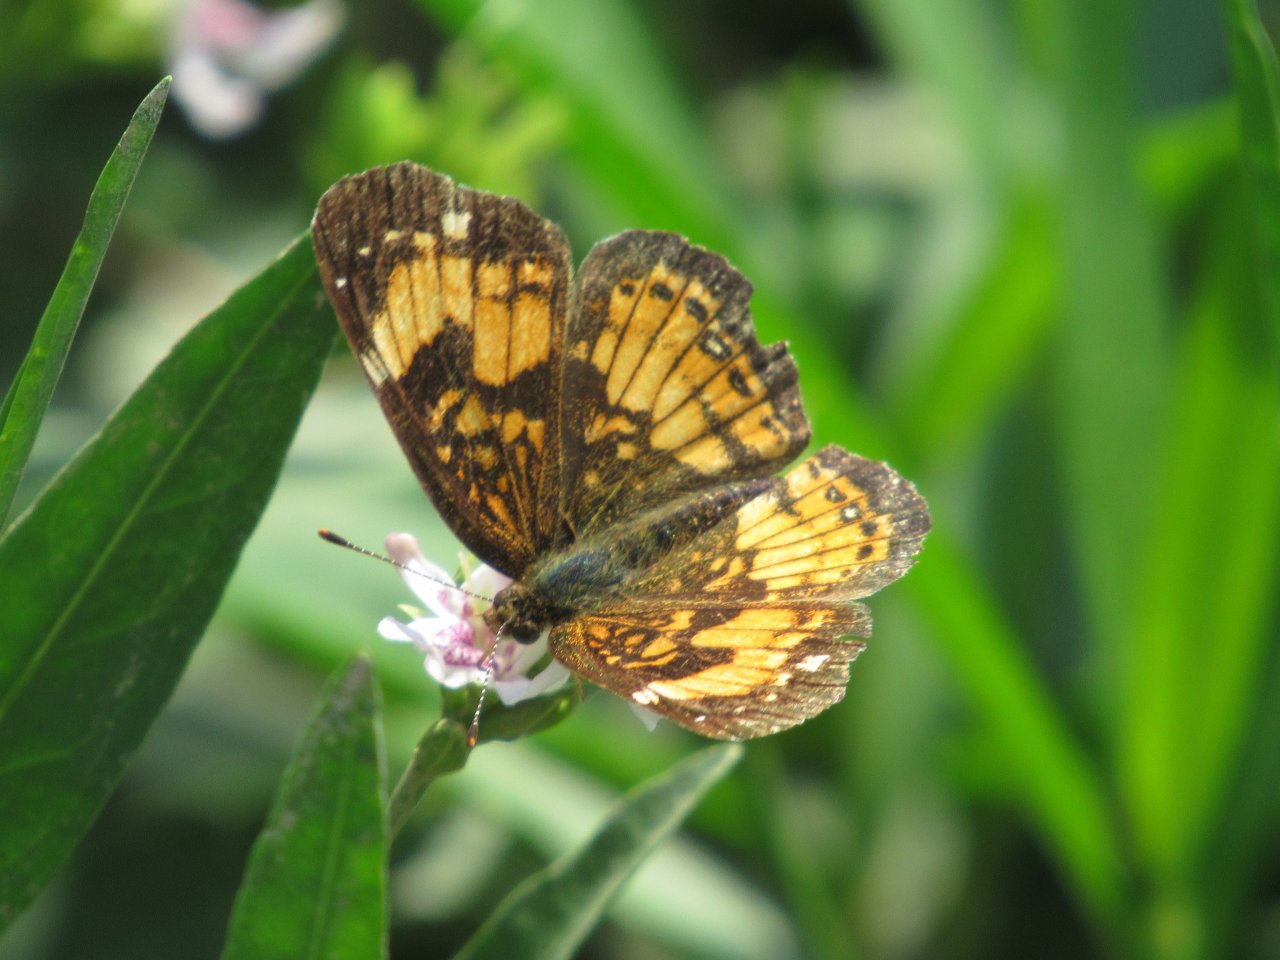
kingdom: Animalia
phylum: Arthropoda
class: Insecta
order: Lepidoptera
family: Nymphalidae
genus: Chlosyne
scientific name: Chlosyne nycteis
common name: Silvery Checkerspot
